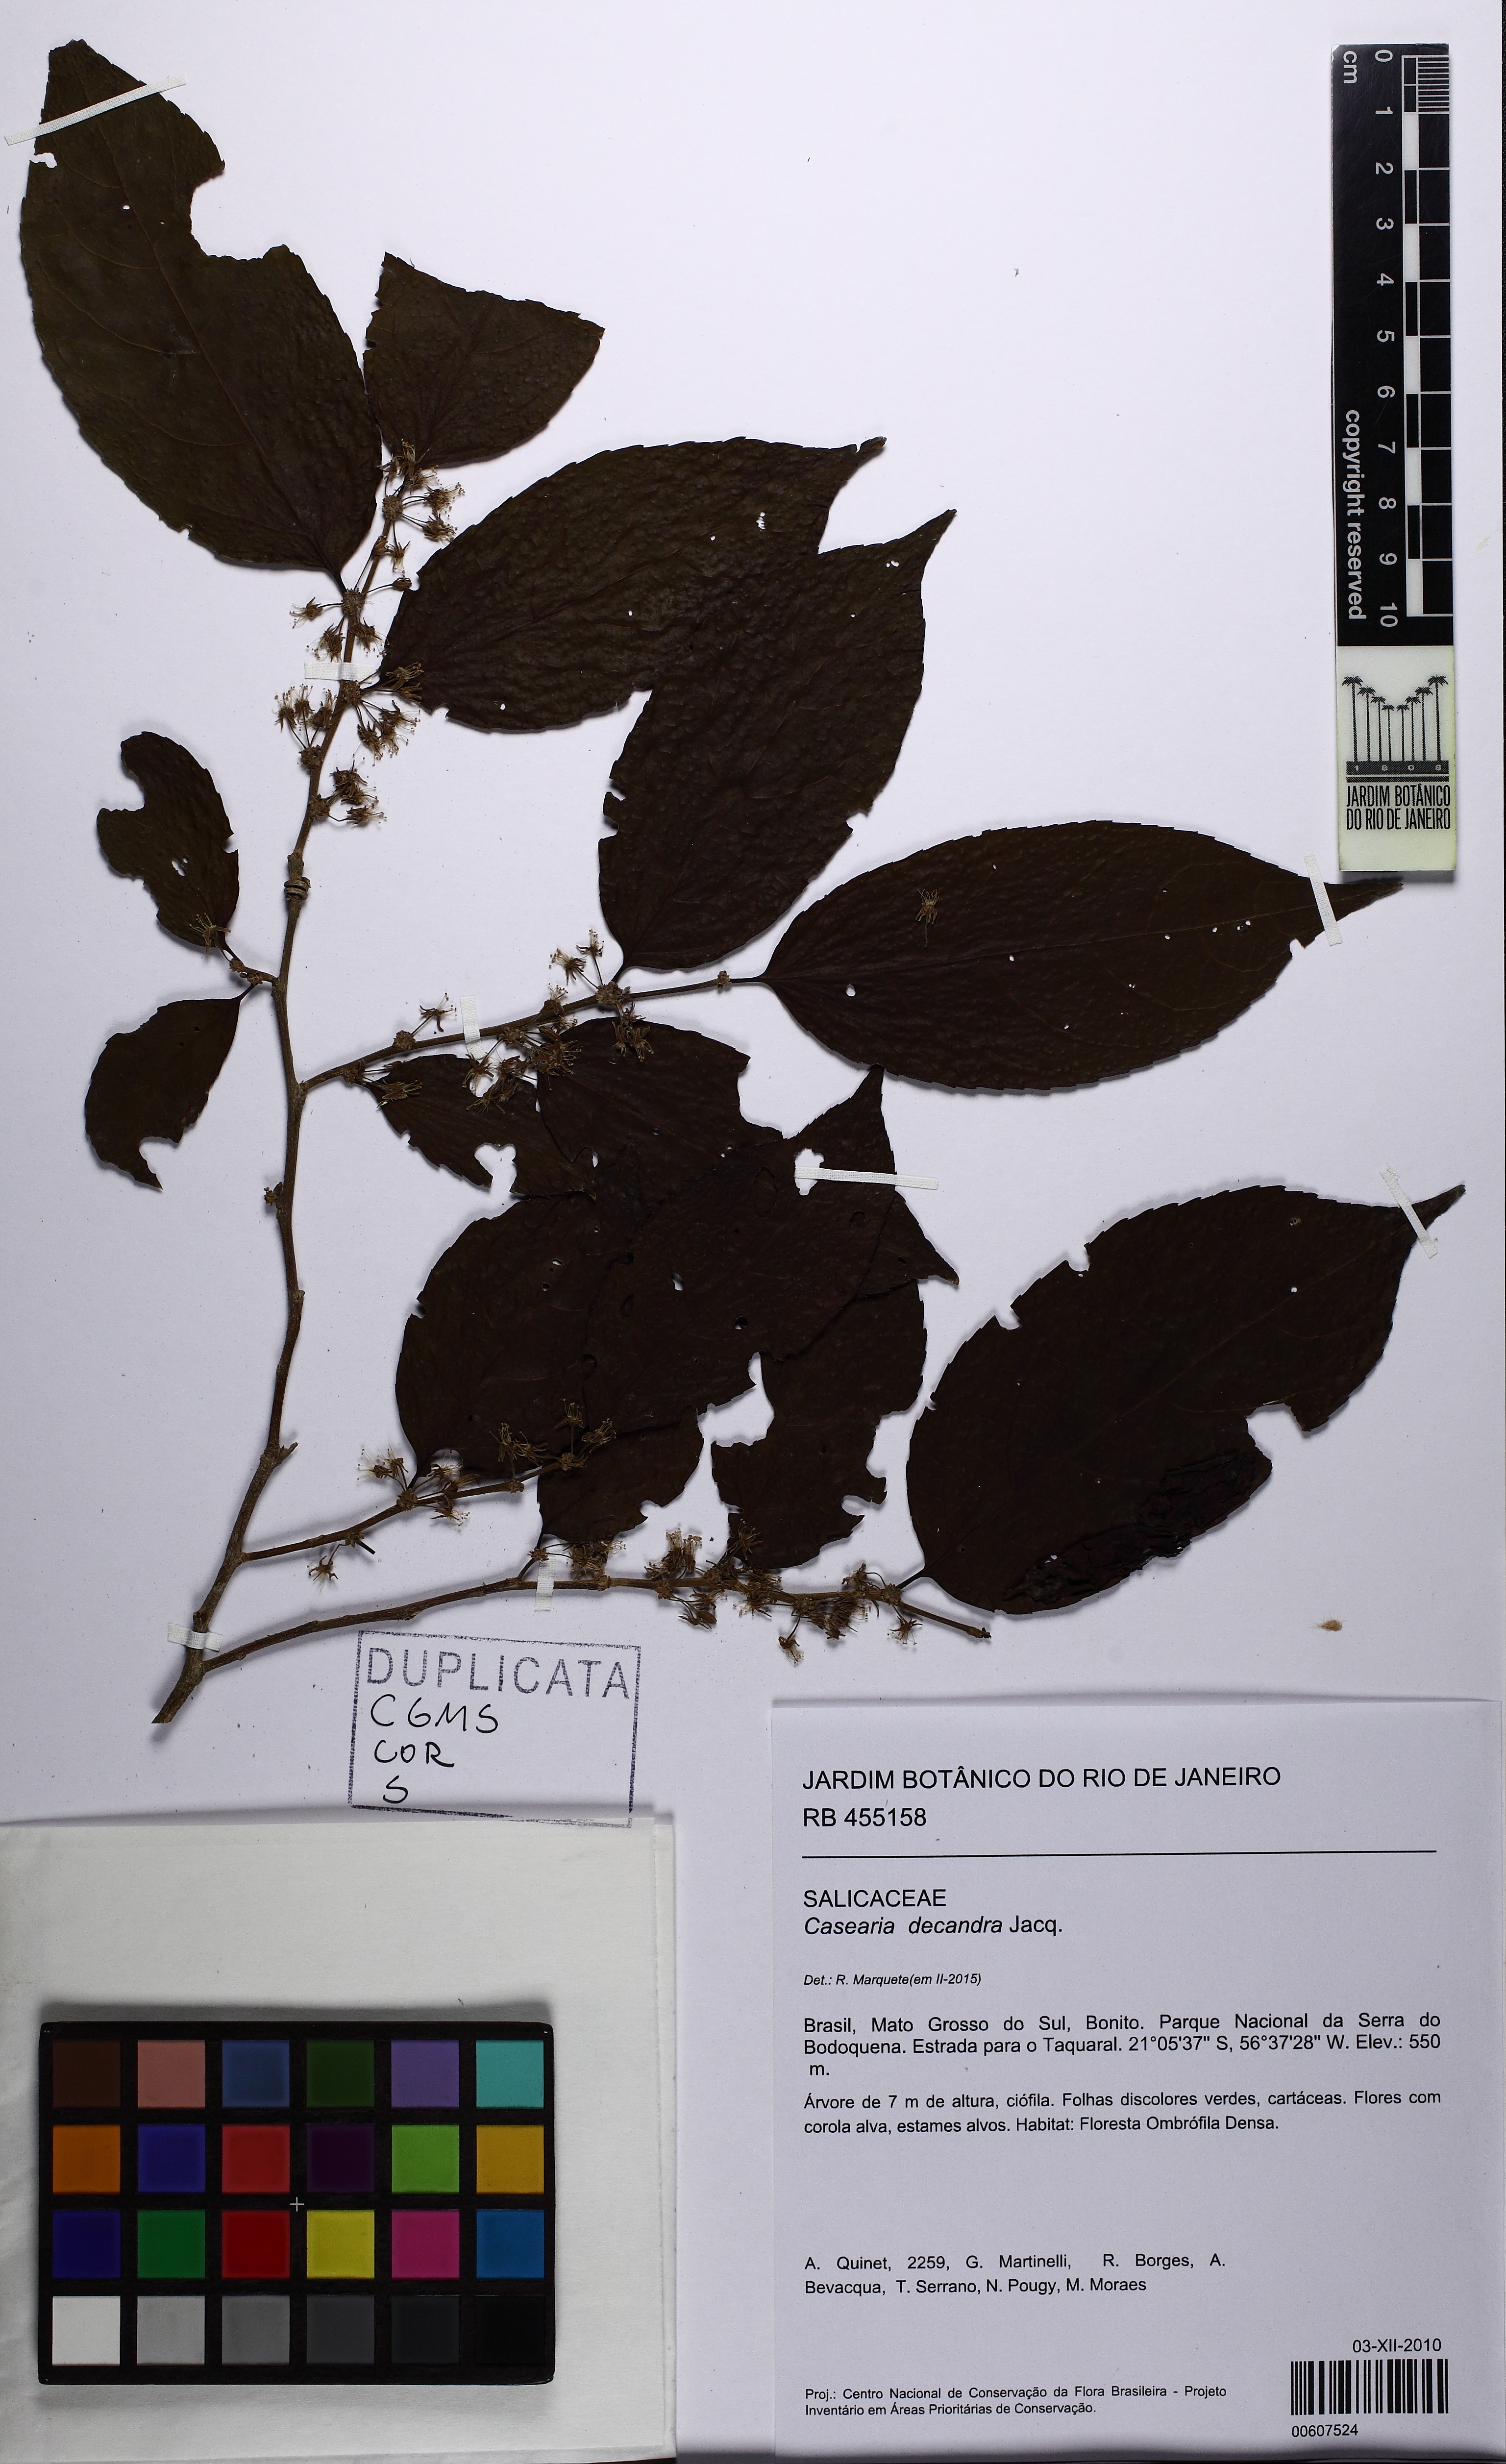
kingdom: Plantae
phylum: Tracheophyta
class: Magnoliopsida
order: Malpighiales
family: Salicaceae
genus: Casearia
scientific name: Casearia decandra
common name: Crack open
